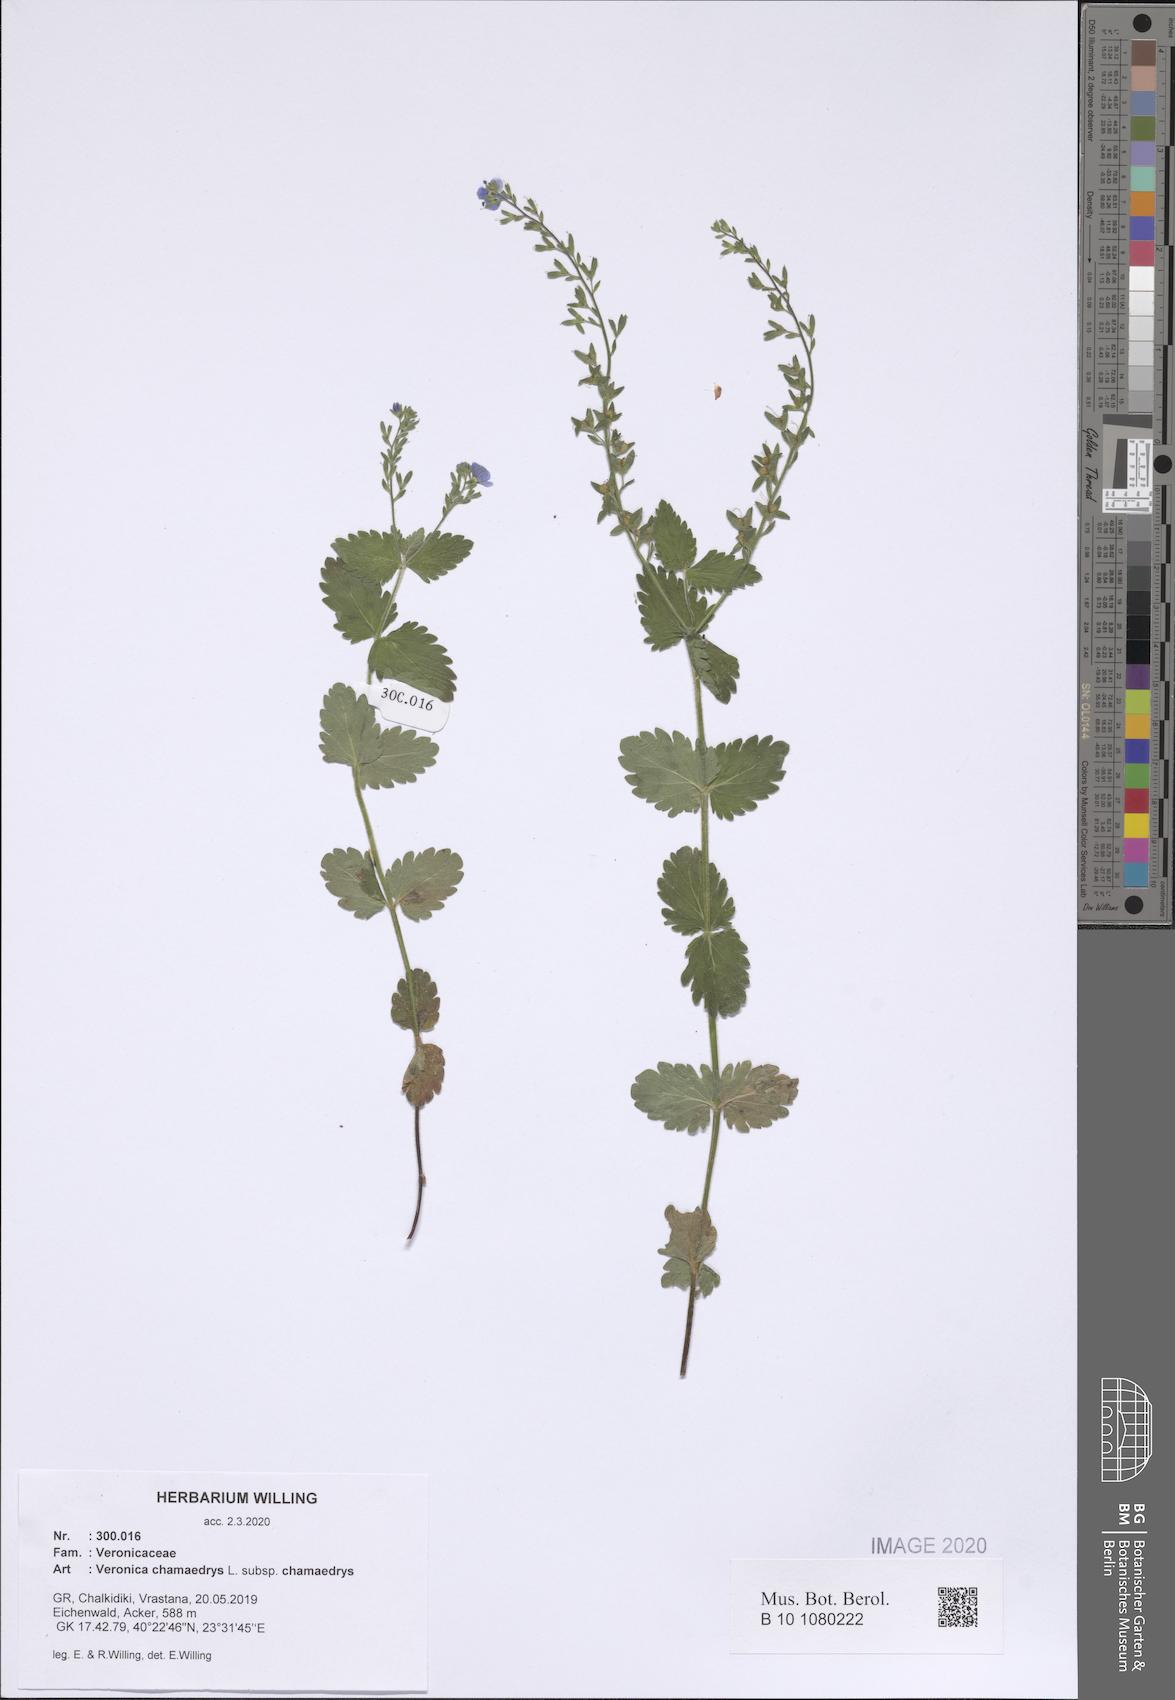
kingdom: Plantae
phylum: Tracheophyta
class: Magnoliopsida
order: Lamiales
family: Plantaginaceae
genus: Veronica
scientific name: Veronica chamaedrys
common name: Germander speedwell
